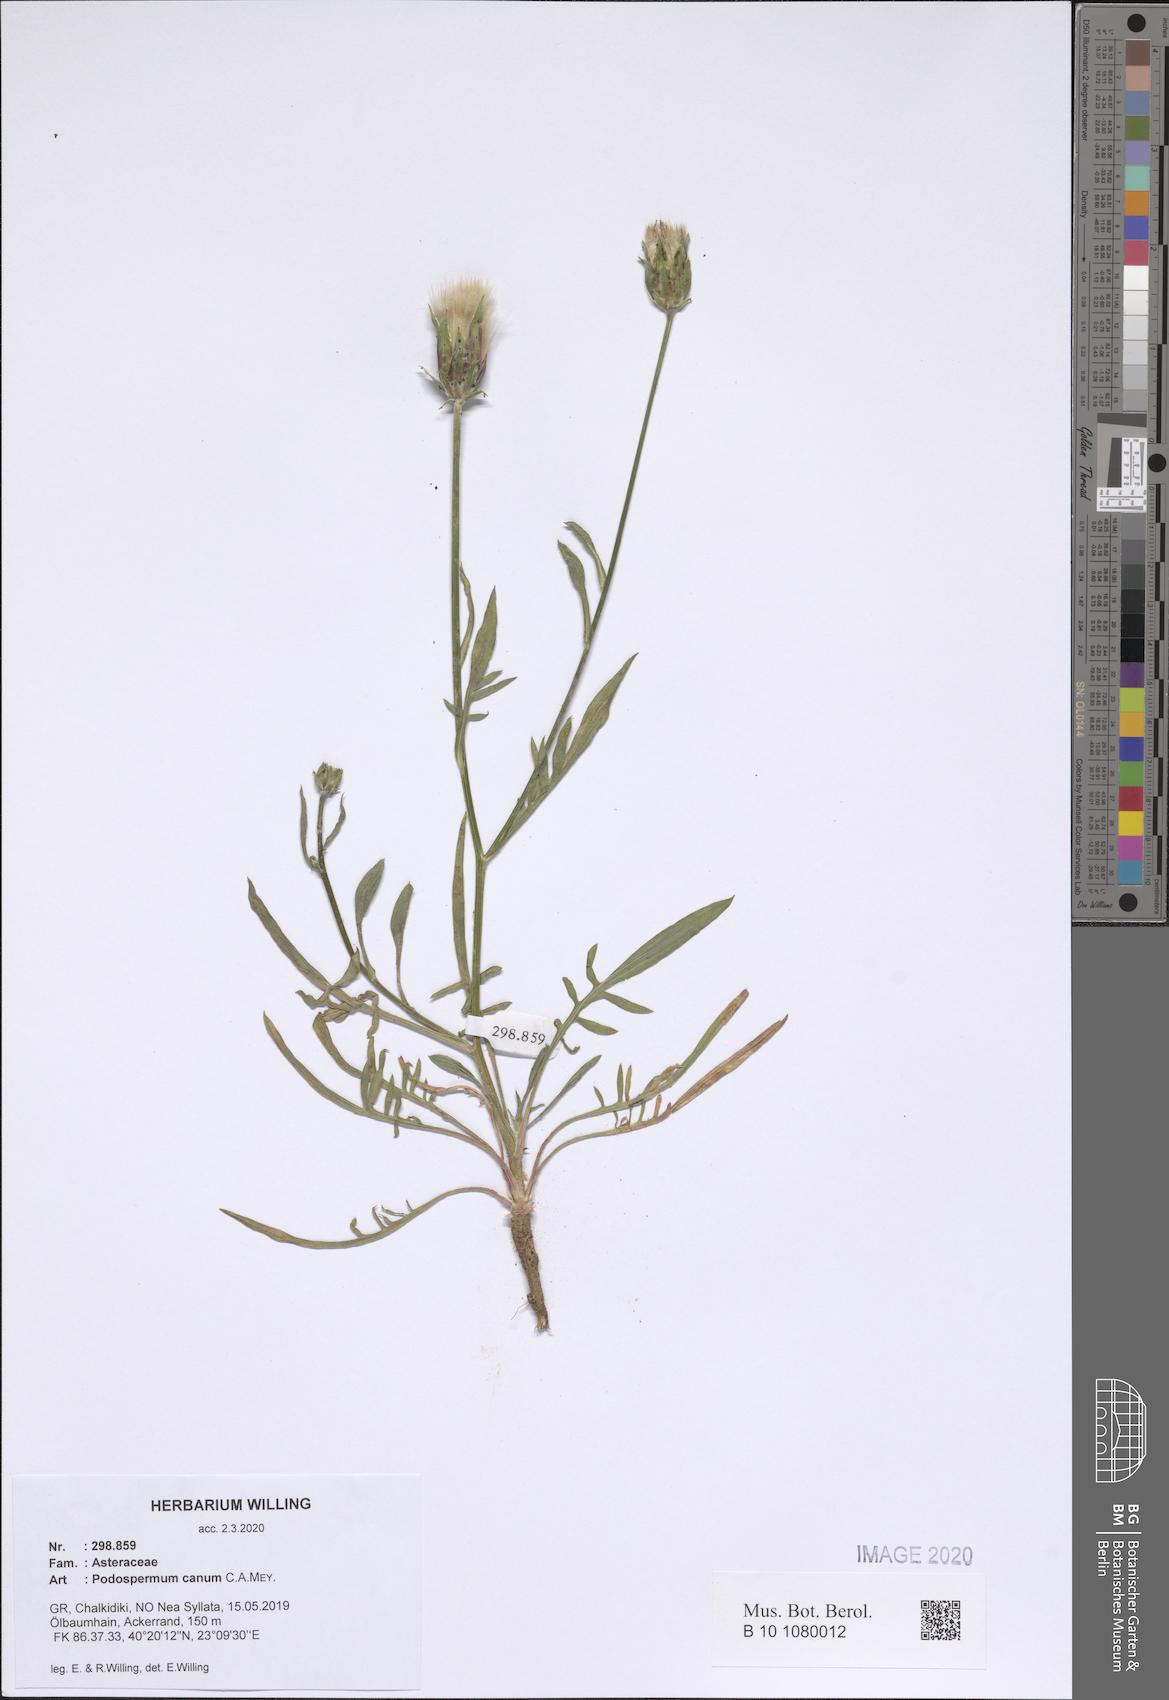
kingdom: Plantae
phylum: Tracheophyta
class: Magnoliopsida
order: Asterales
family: Asteraceae
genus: Scorzonera
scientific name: Scorzonera cana
